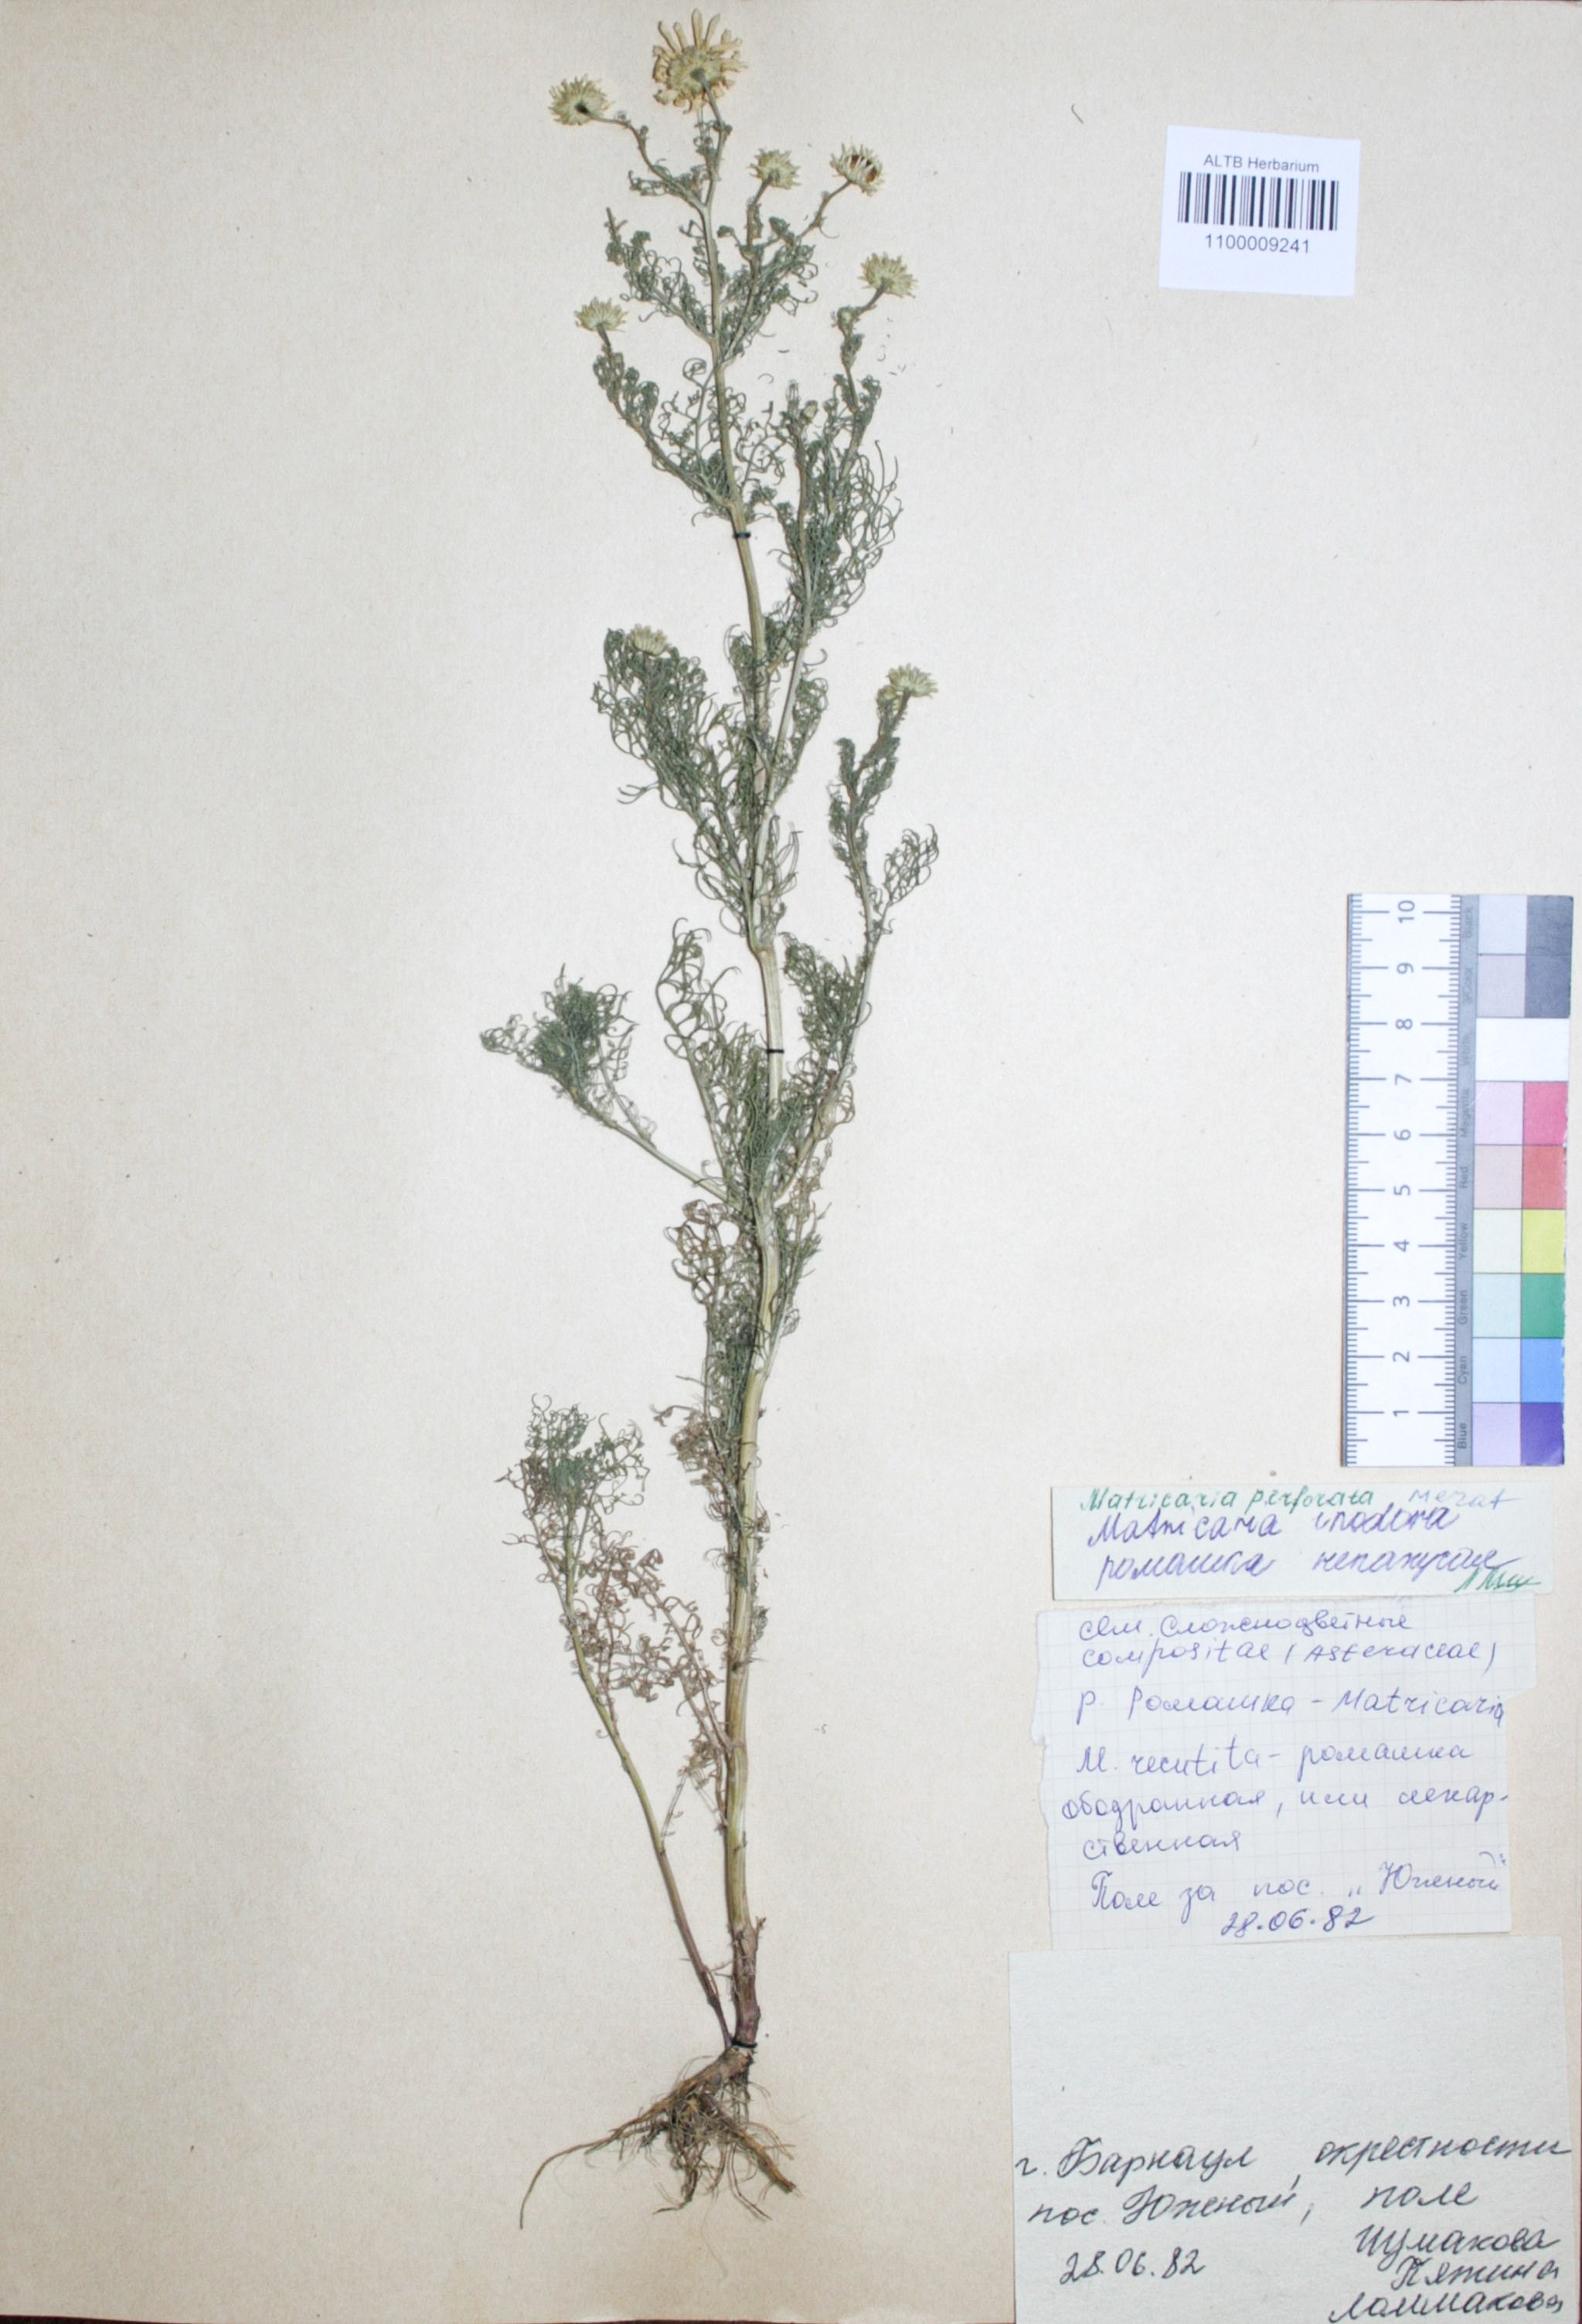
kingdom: Plantae
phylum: Tracheophyta
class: Magnoliopsida
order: Asterales
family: Asteraceae
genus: Tripleurospermum
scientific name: Tripleurospermum inodorum
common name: Scentless mayweed
